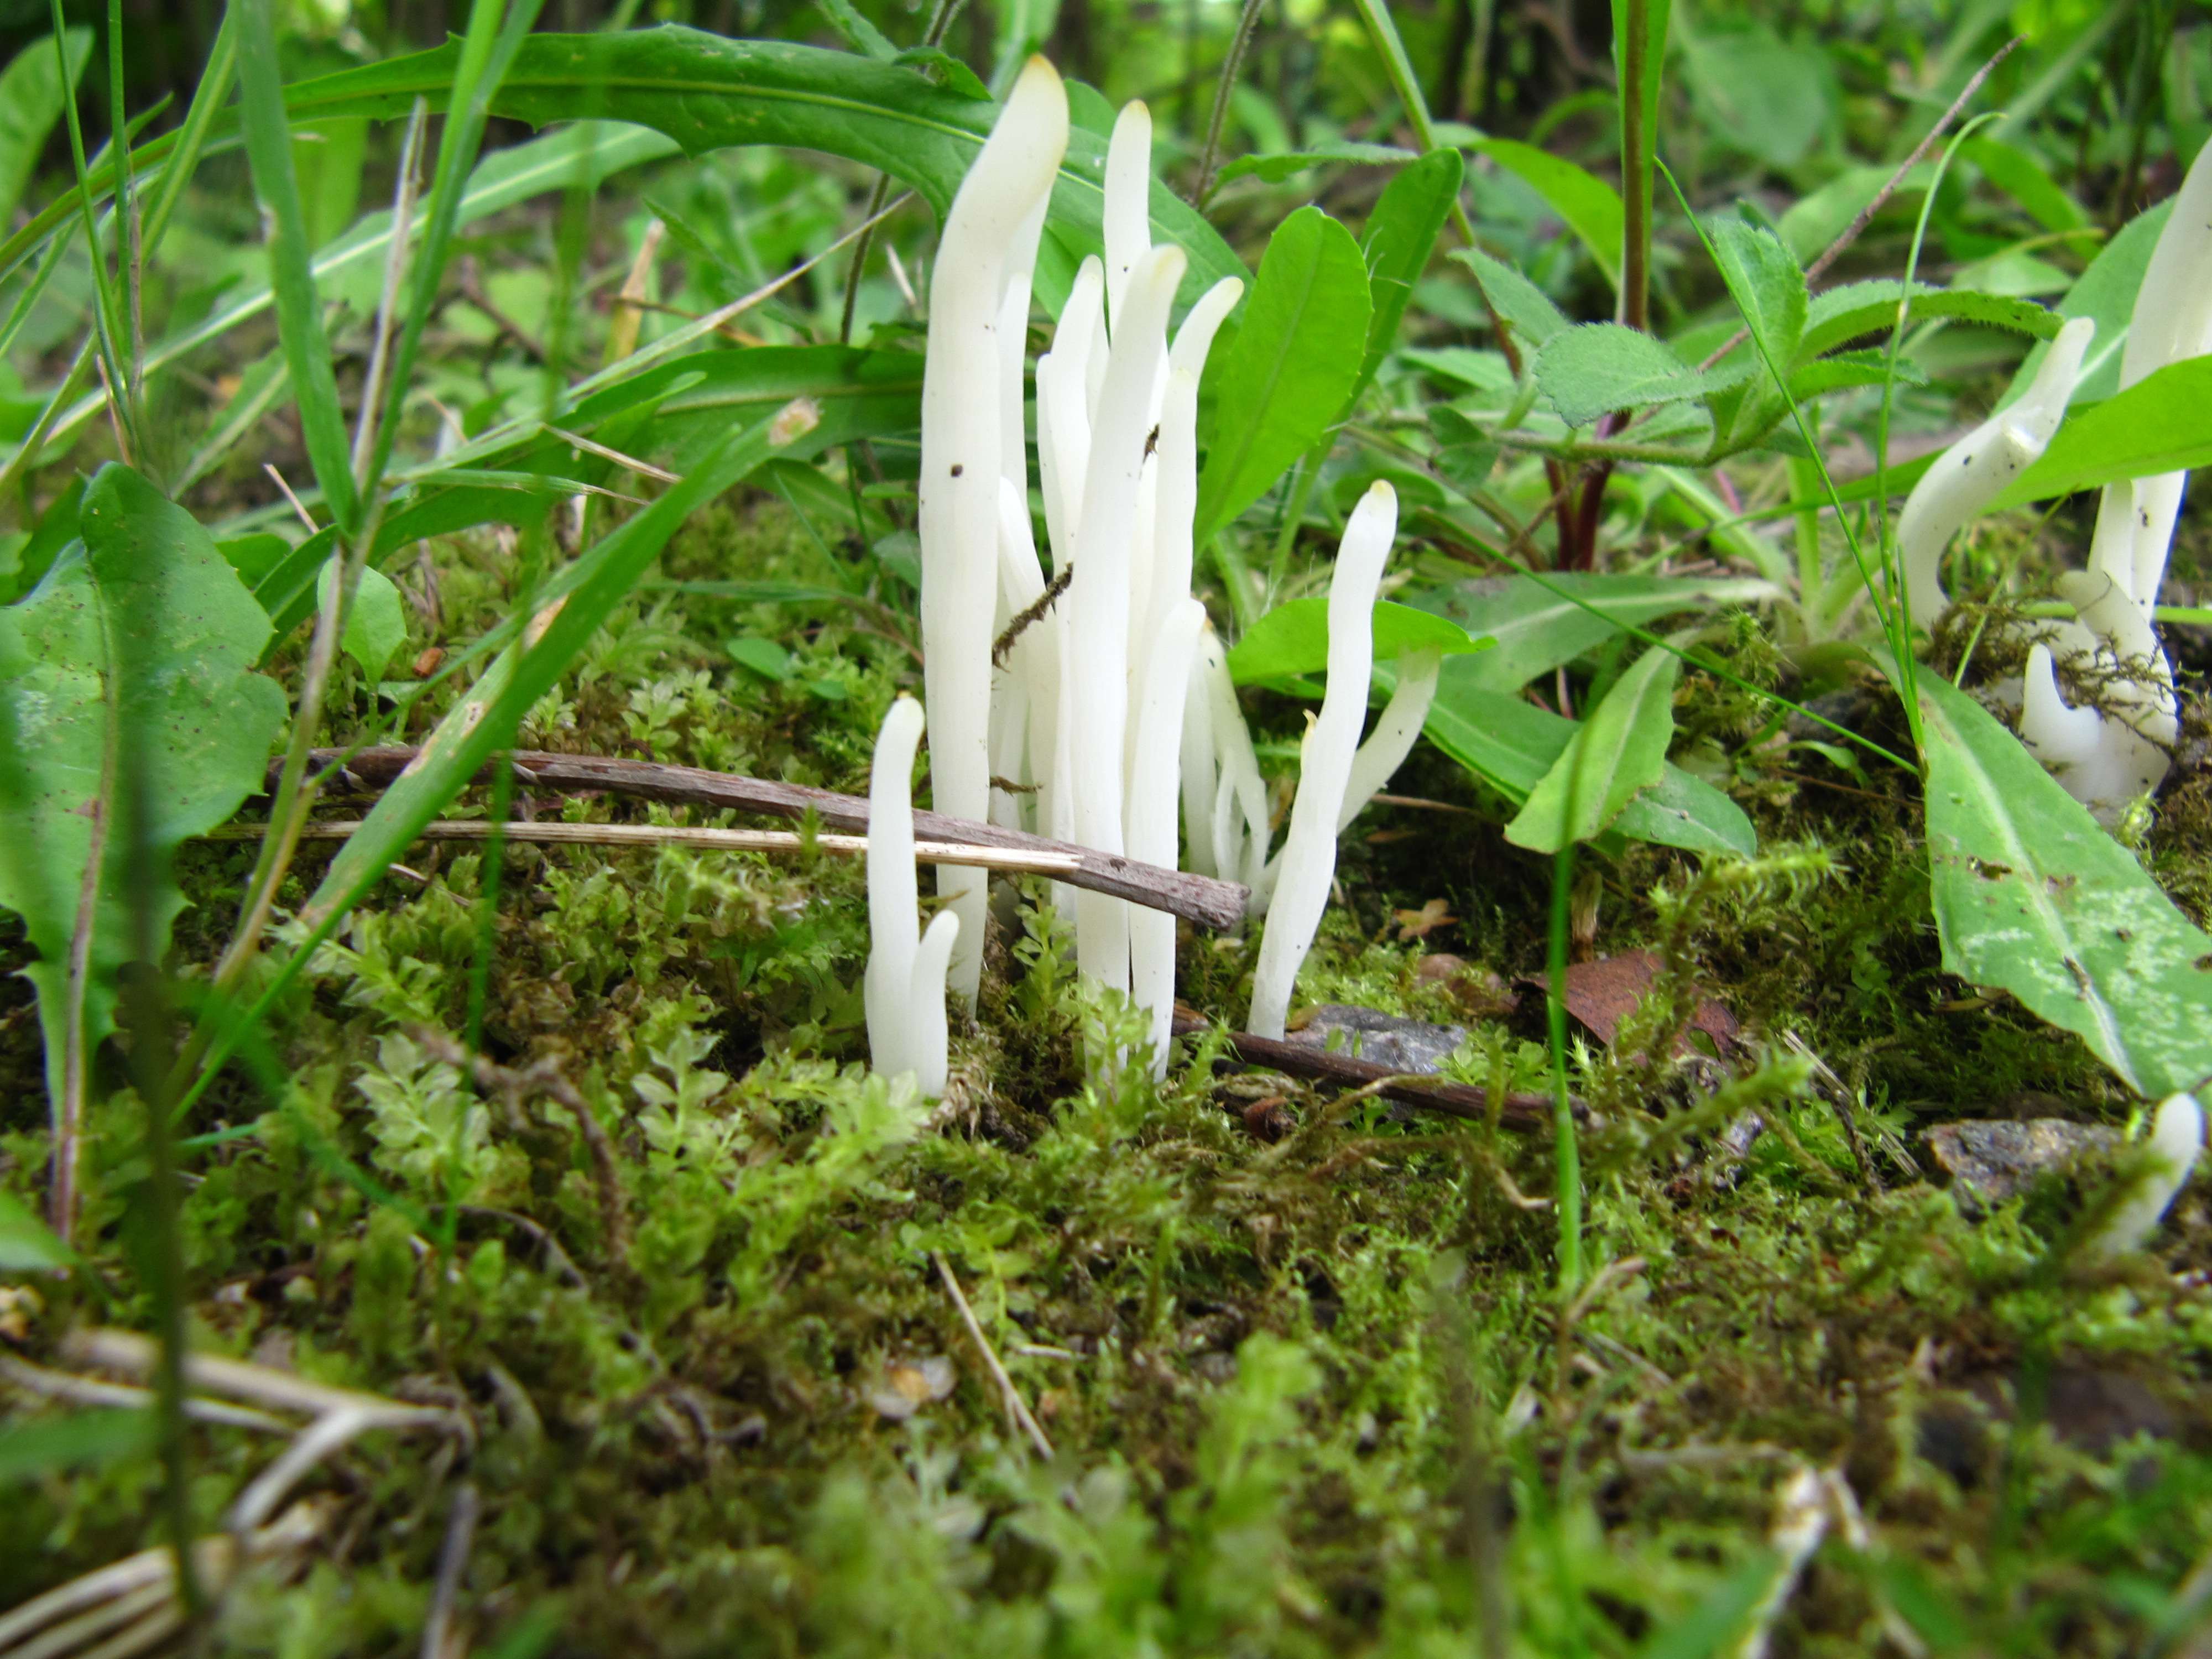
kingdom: Fungi
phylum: Basidiomycota
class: Agaricomycetes
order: Agaricales
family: Clavariaceae
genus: Clavaria
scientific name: Clavaria fragilis
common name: White spindles
